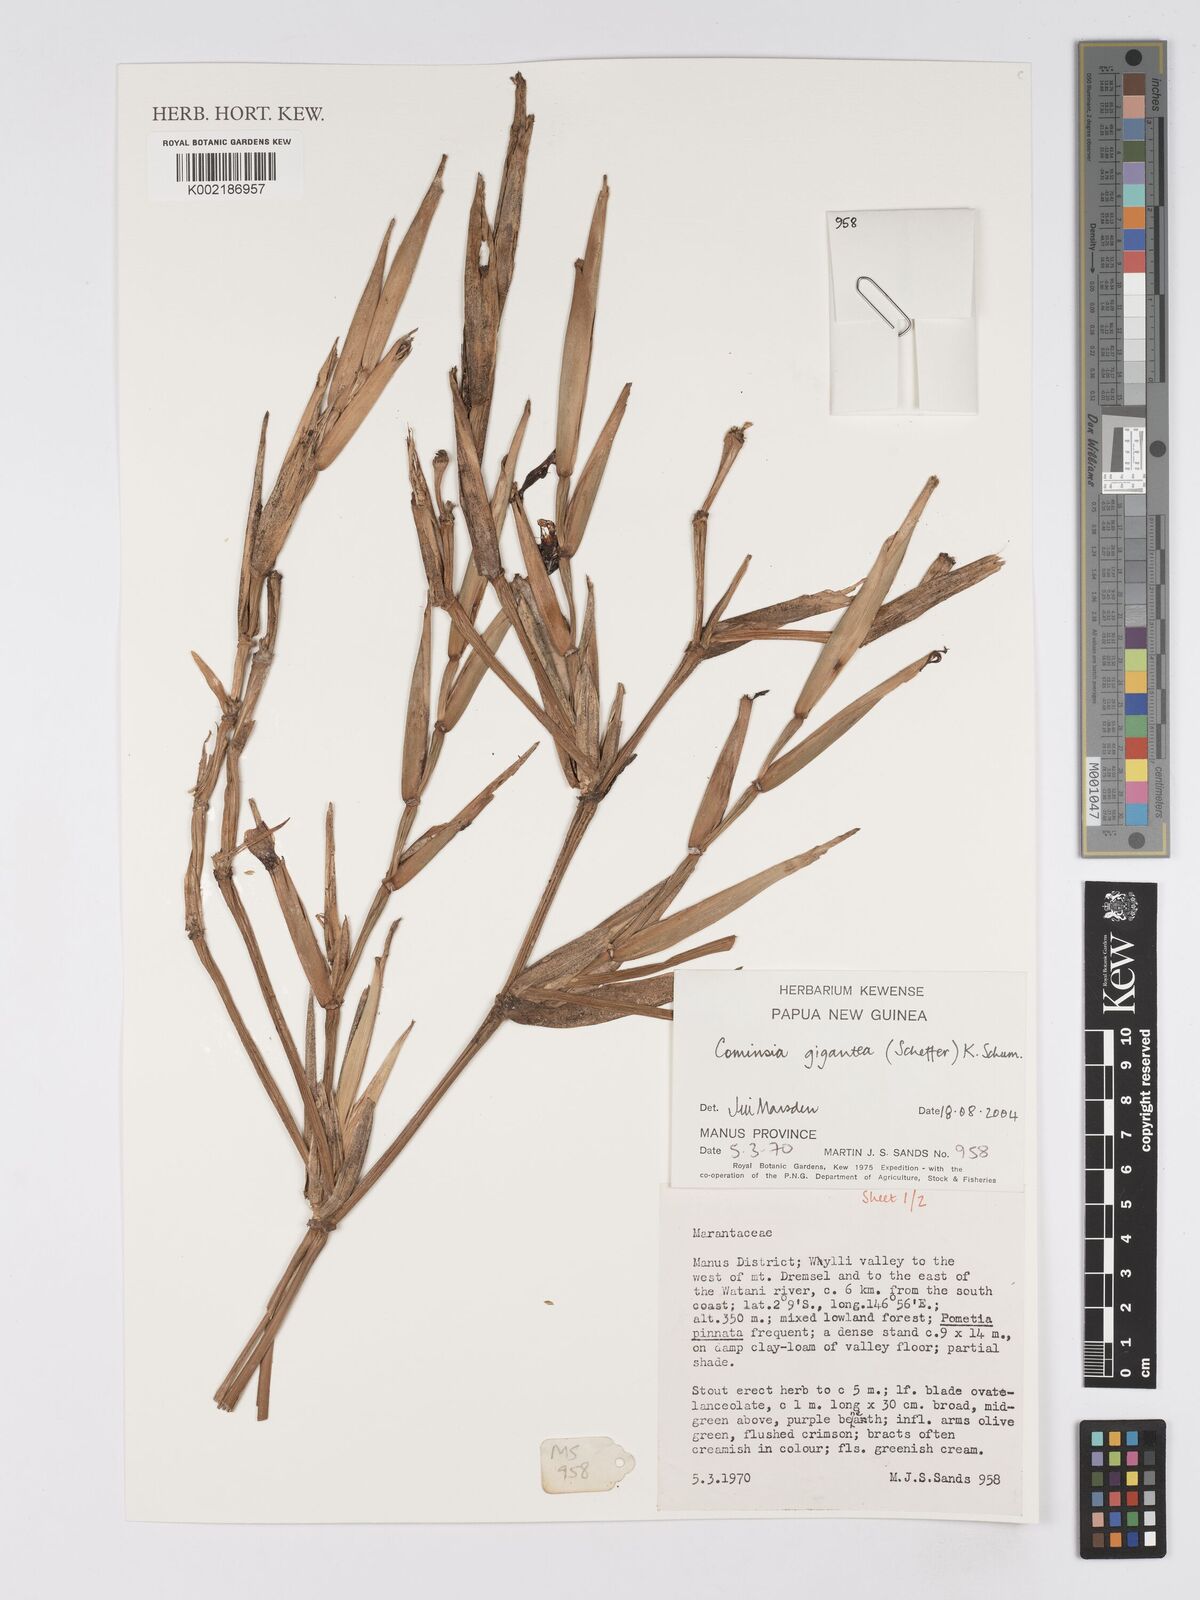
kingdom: Plantae
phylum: Tracheophyta
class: Liliopsida
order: Zingiberales
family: Marantaceae
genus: Phrynium
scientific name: Phrynium giganteum
